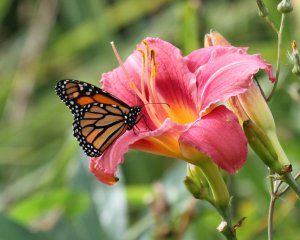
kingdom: Animalia
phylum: Arthropoda
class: Insecta
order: Lepidoptera
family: Nymphalidae
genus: Danaus
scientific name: Danaus plexippus
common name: Monarch
